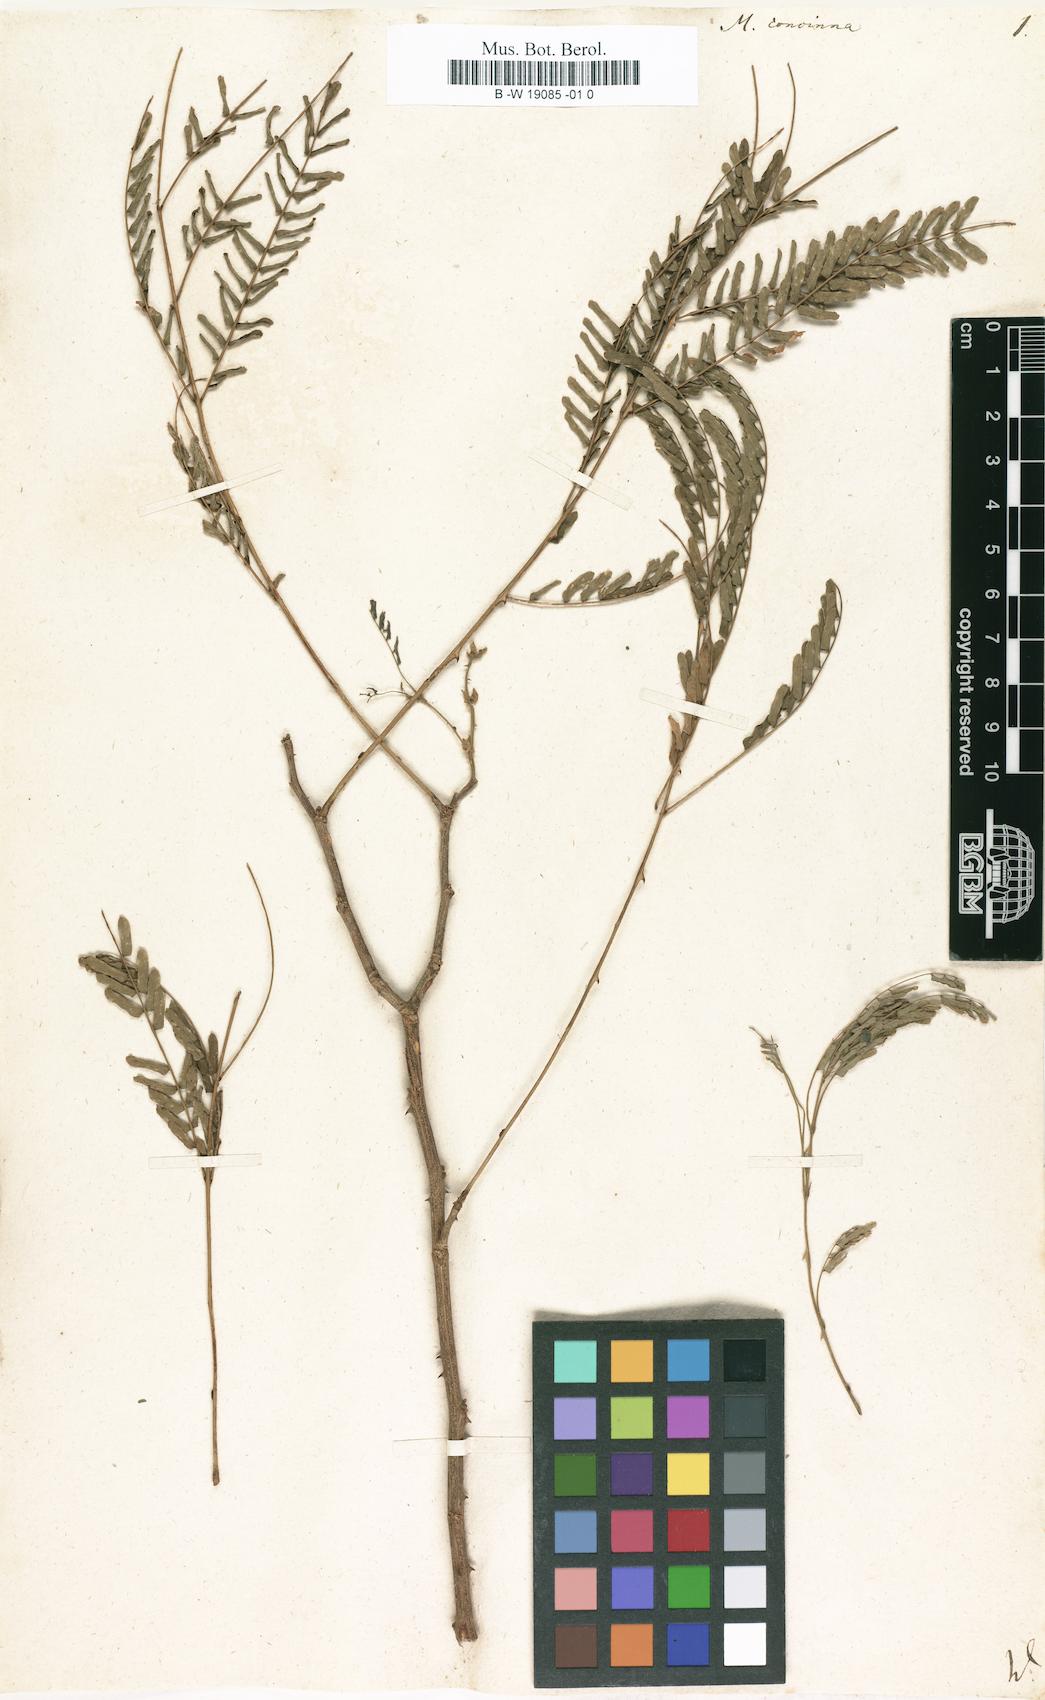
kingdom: Plantae
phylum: Tracheophyta
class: Magnoliopsida
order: Fabales
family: Fabaceae
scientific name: Fabaceae
